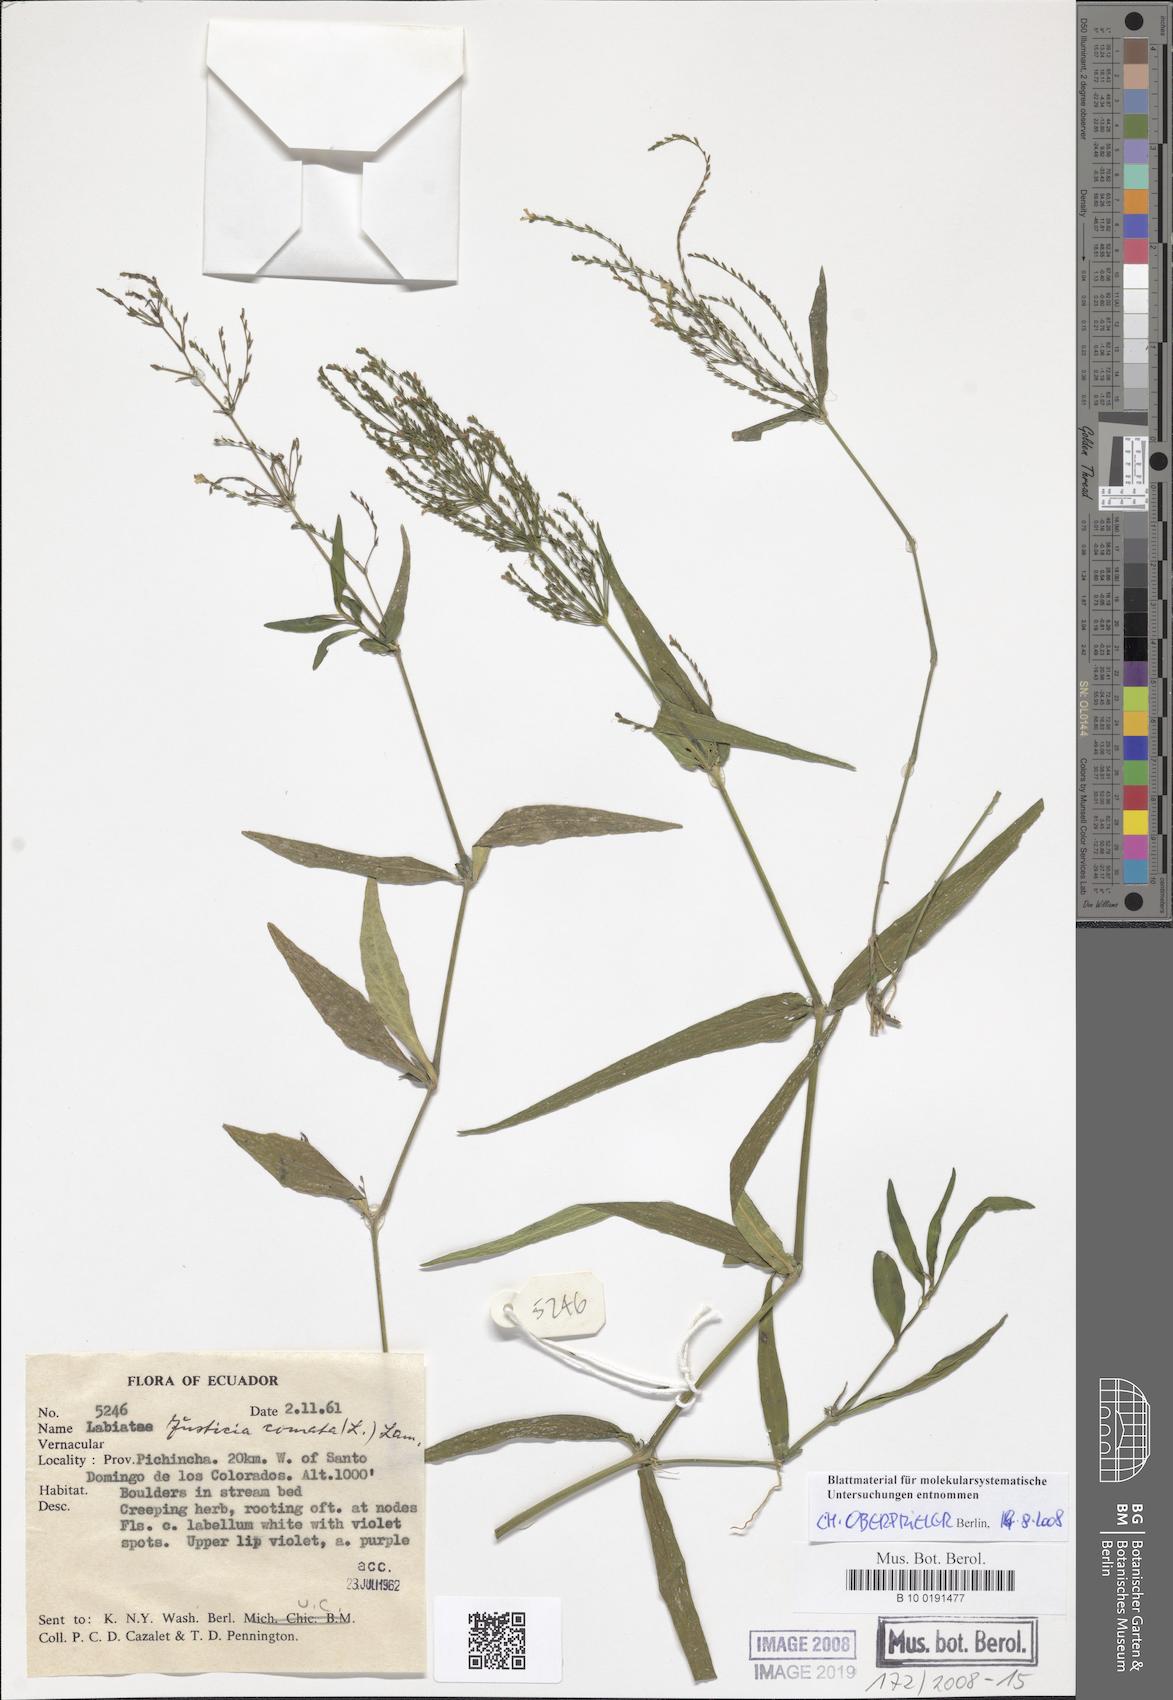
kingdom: Plantae
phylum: Tracheophyta
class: Magnoliopsida
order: Lamiales
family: Acanthaceae
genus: Dianthera
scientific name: Dianthera comata
